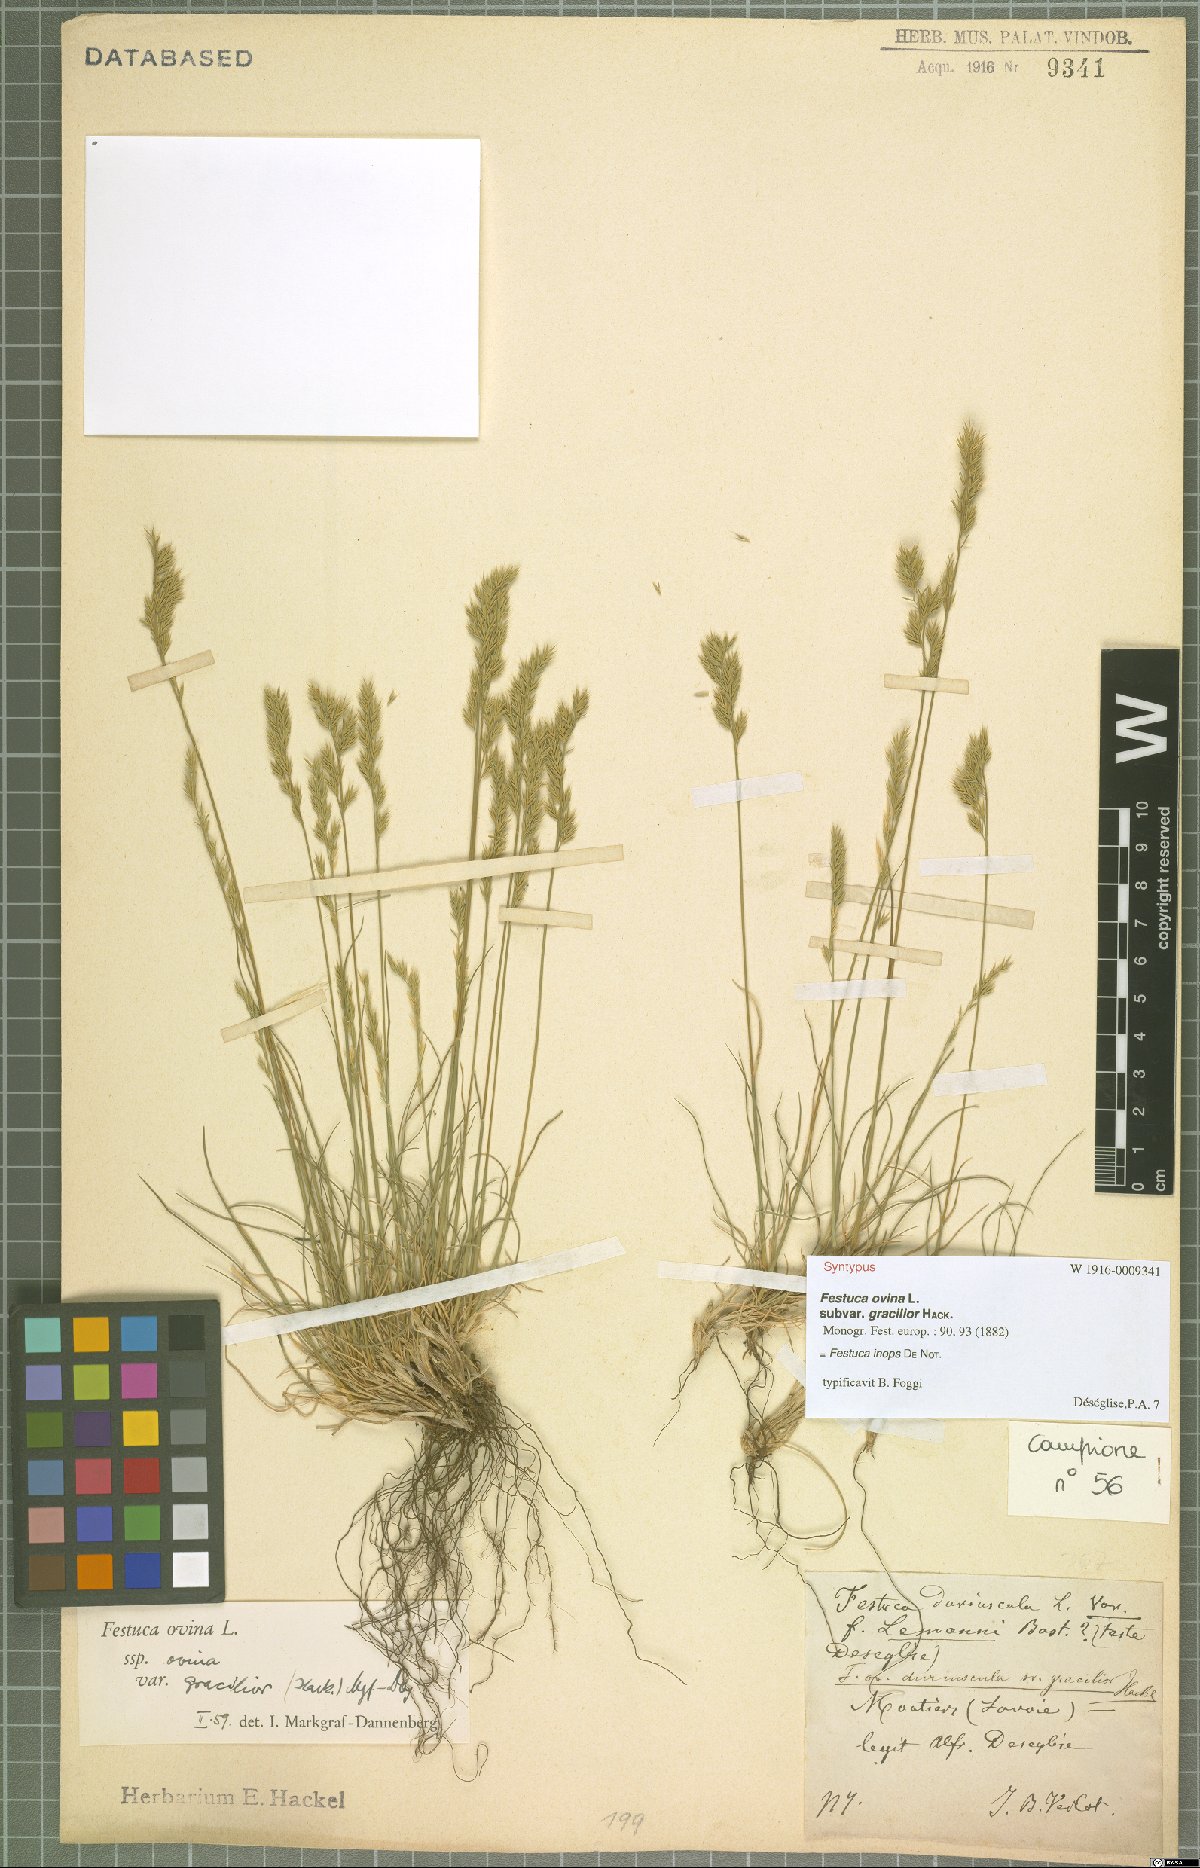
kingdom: Plantae
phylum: Tracheophyta
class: Liliopsida
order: Poales
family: Poaceae
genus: Festuca
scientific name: Festuca inops
